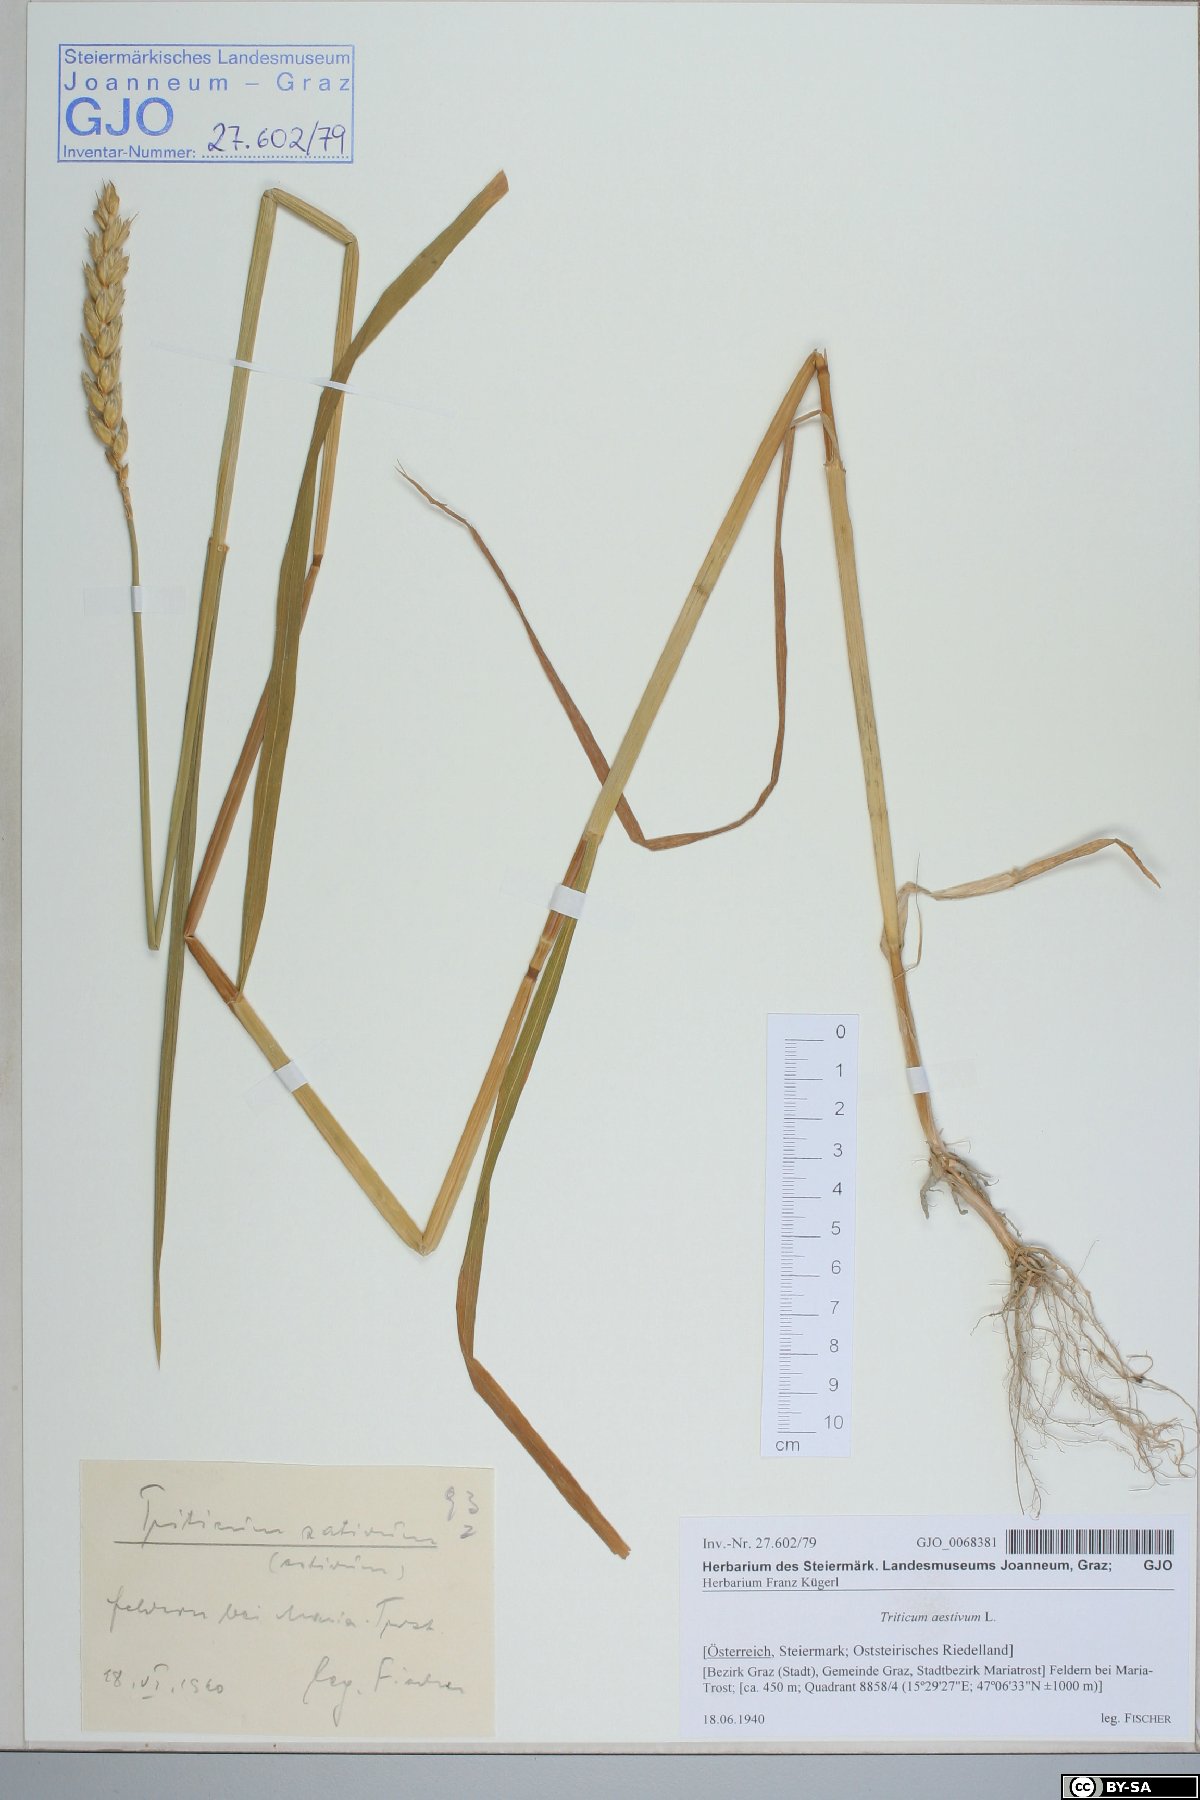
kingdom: Plantae
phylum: Tracheophyta
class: Liliopsida
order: Poales
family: Poaceae
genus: Triticum
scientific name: Triticum aestivum
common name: Common wheat
